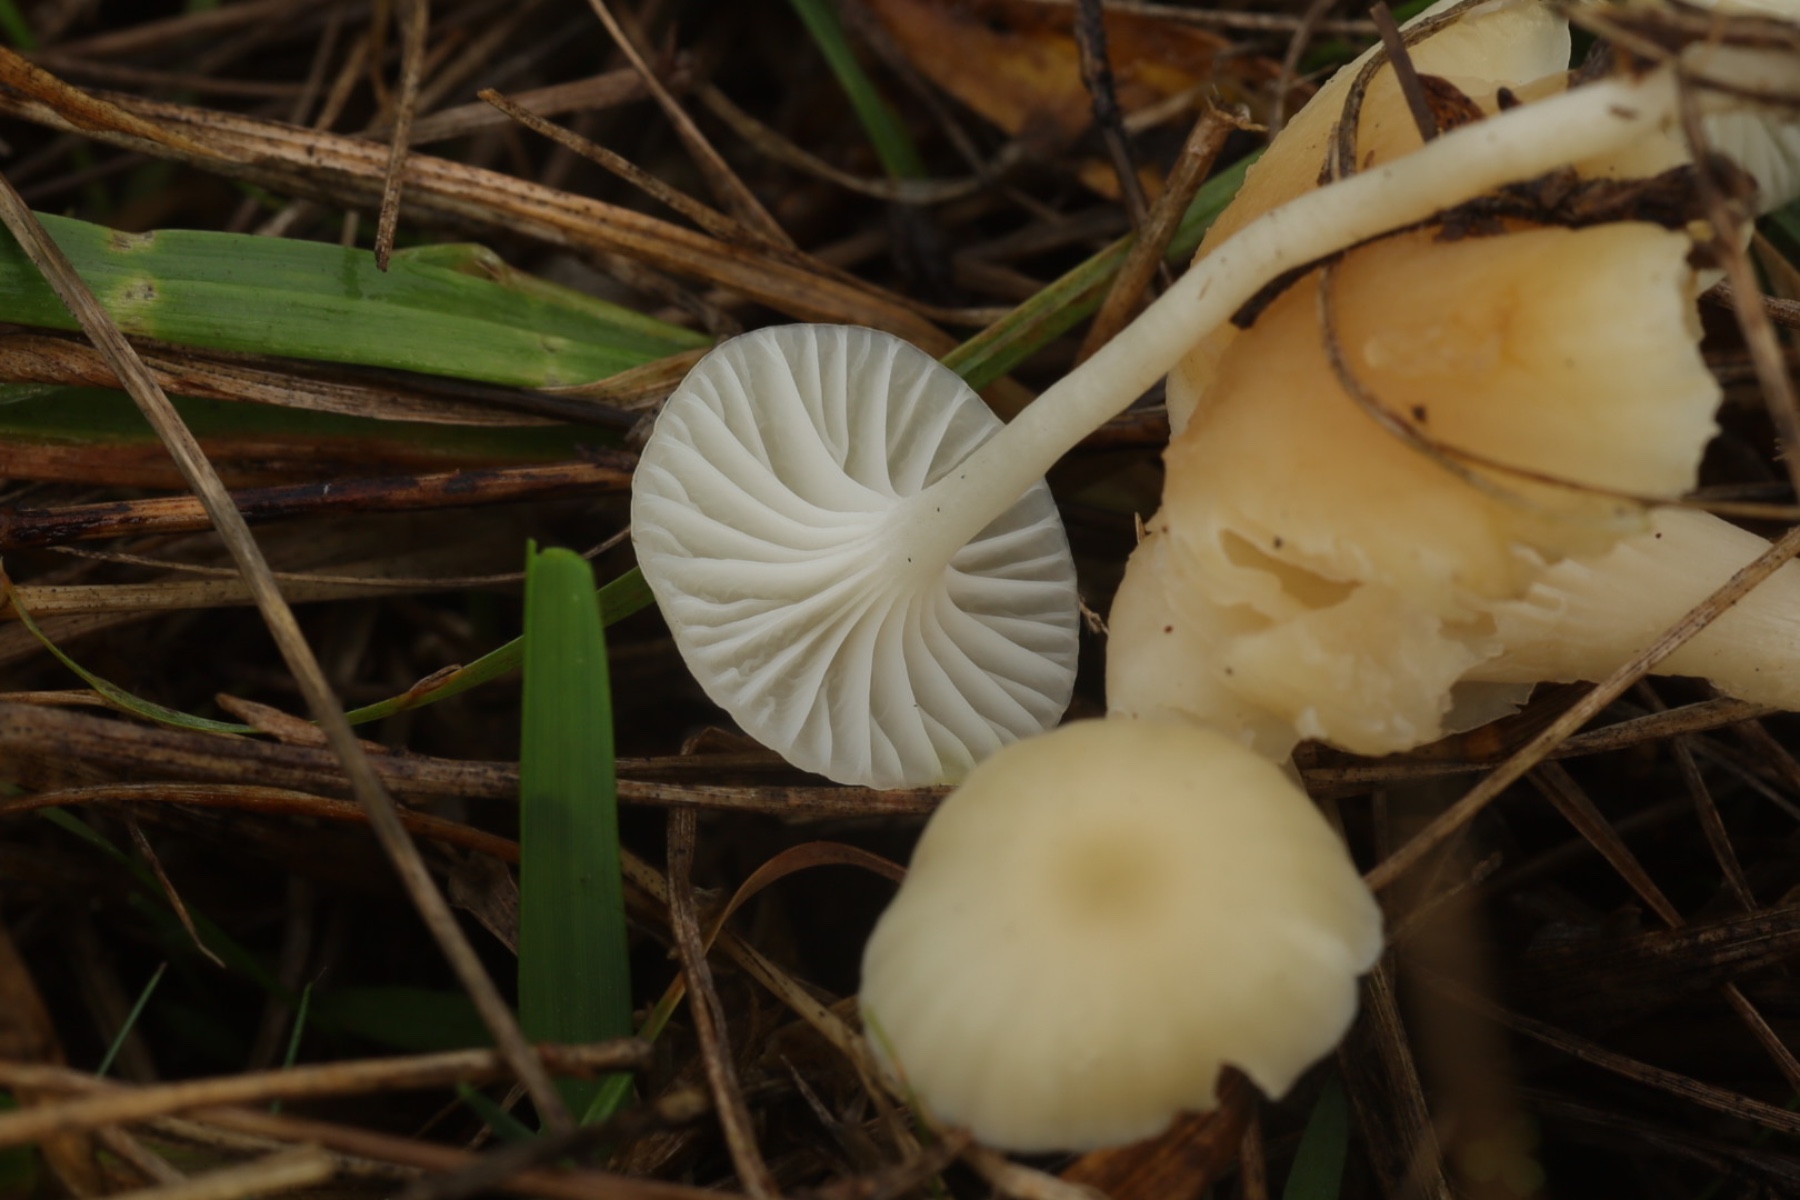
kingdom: Fungi
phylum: Basidiomycota
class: Agaricomycetes
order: Agaricales
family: Hygrophoraceae
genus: Cuphophyllus
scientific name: Cuphophyllus russocoriaceus
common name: ruslæder-vokshat
